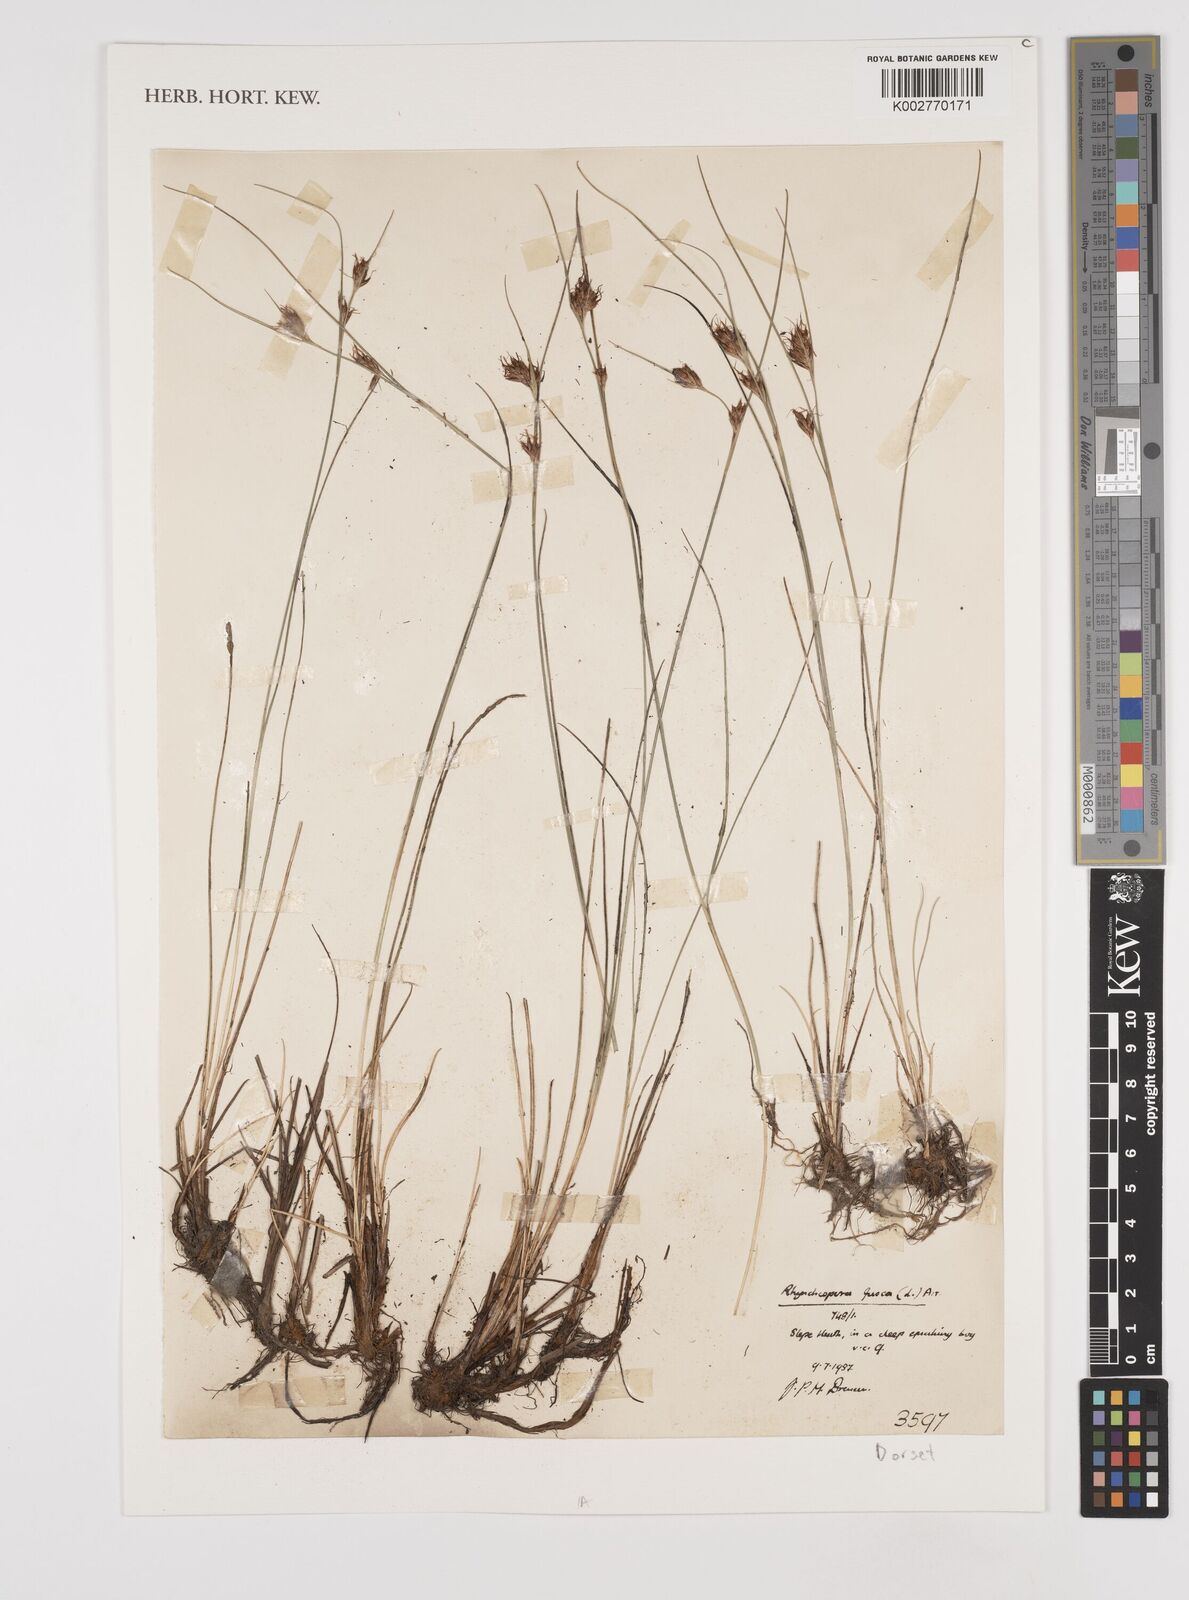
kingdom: Plantae
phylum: Tracheophyta
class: Liliopsida
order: Poales
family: Cyperaceae
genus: Rhynchospora
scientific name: Rhynchospora fusca
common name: Brown beak-sedge
